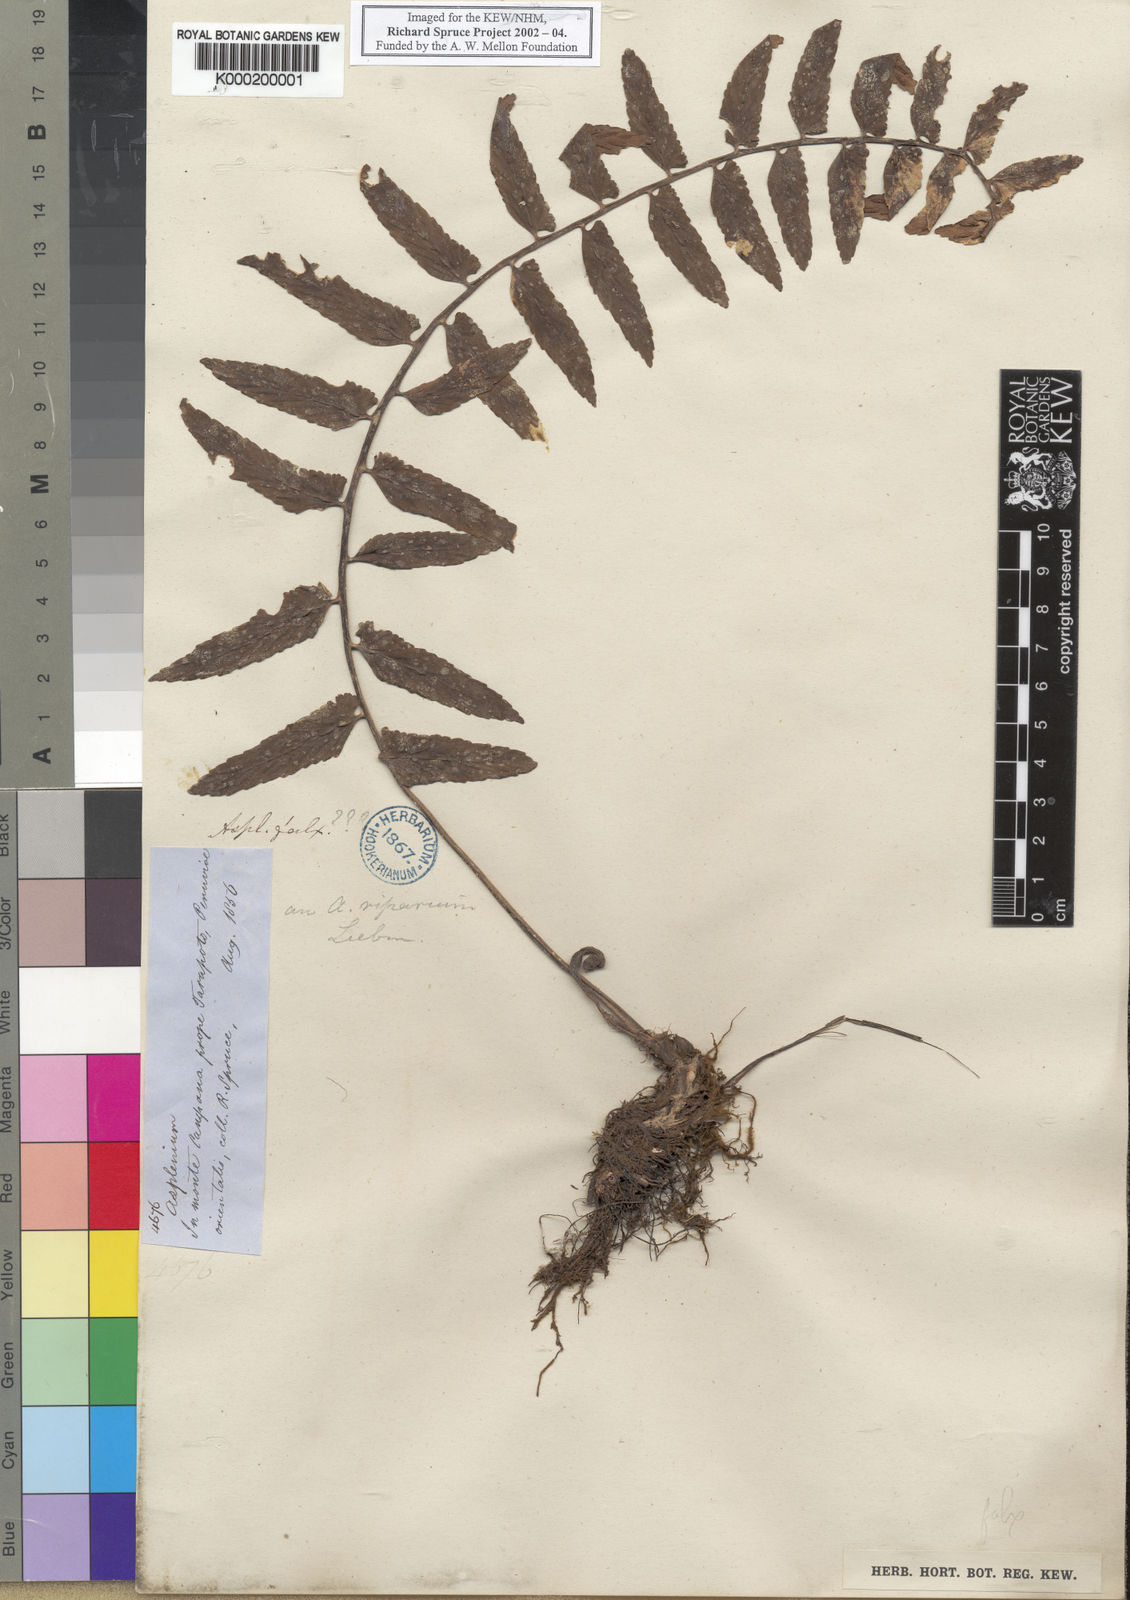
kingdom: Plantae
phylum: Tracheophyta
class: Polypodiopsida
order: Polypodiales
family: Aspleniaceae
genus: Asplenium
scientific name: Asplenium hastatum
